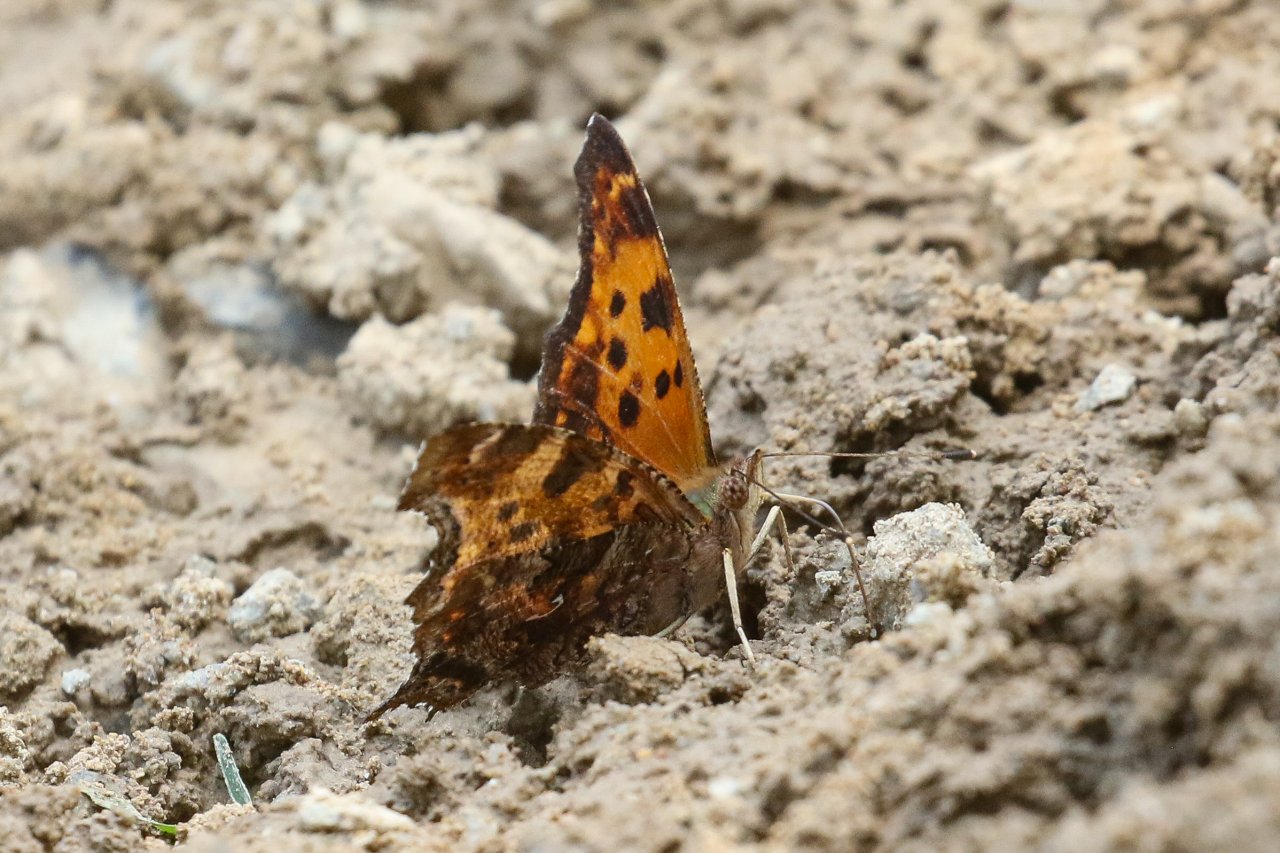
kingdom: Animalia
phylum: Arthropoda
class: Insecta
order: Lepidoptera
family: Nymphalidae
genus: Polygonia
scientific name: Polygonia comma
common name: Eastern Comma
